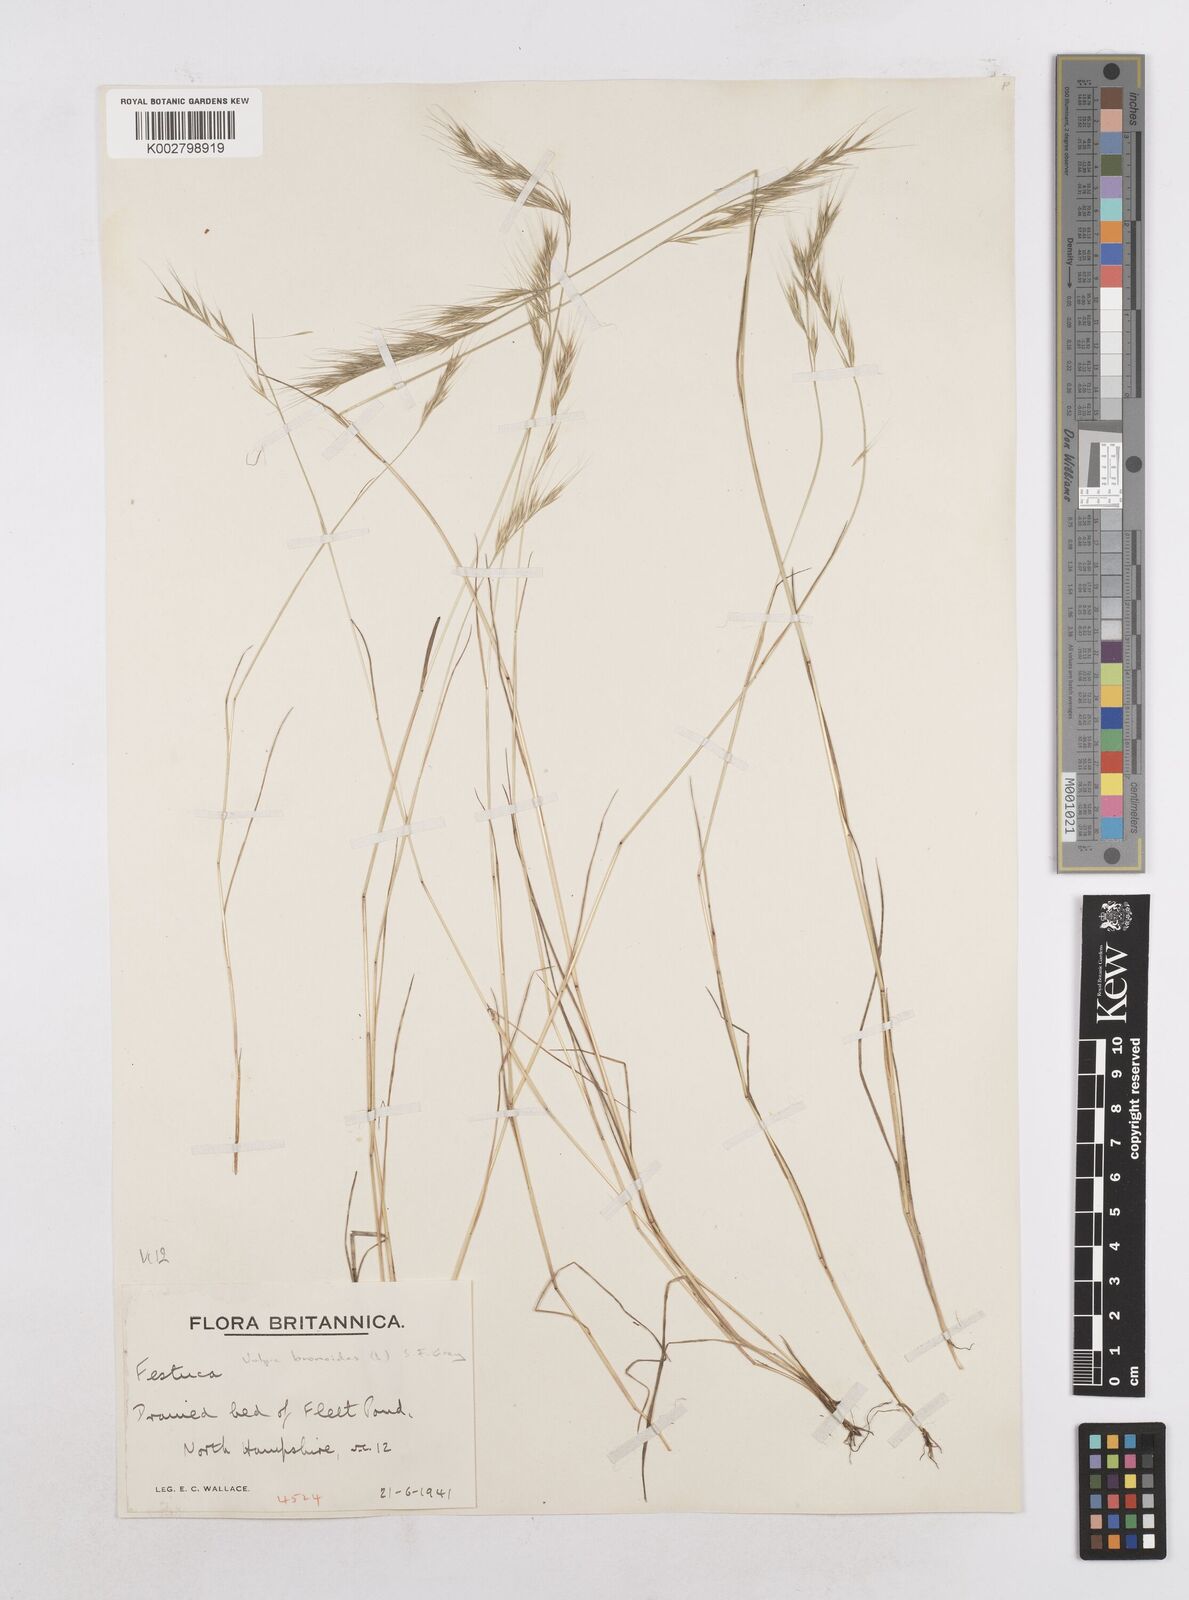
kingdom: Plantae
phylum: Tracheophyta
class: Liliopsida
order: Poales
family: Poaceae
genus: Festuca
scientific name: Festuca bromoides
